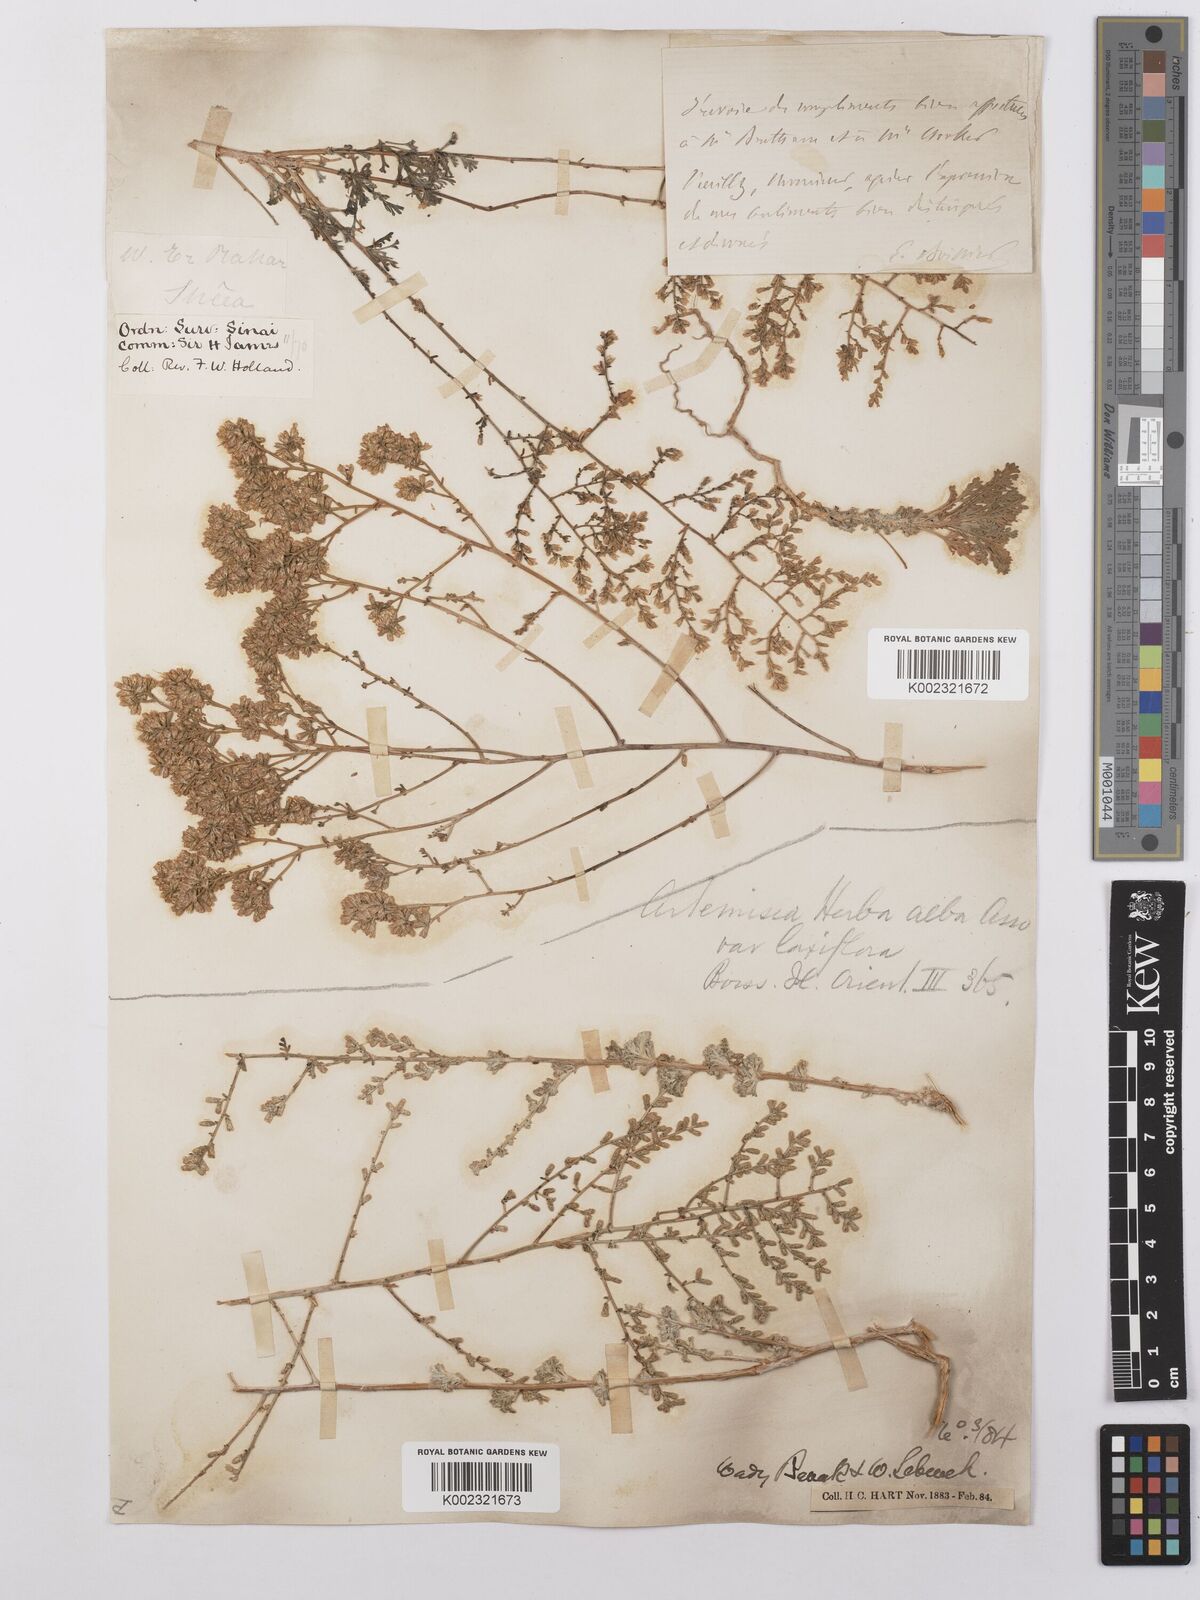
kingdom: Plantae
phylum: Tracheophyta
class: Magnoliopsida
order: Asterales
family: Asteraceae
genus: Artemisia
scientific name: Artemisia herba-alba
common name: White wormwood
